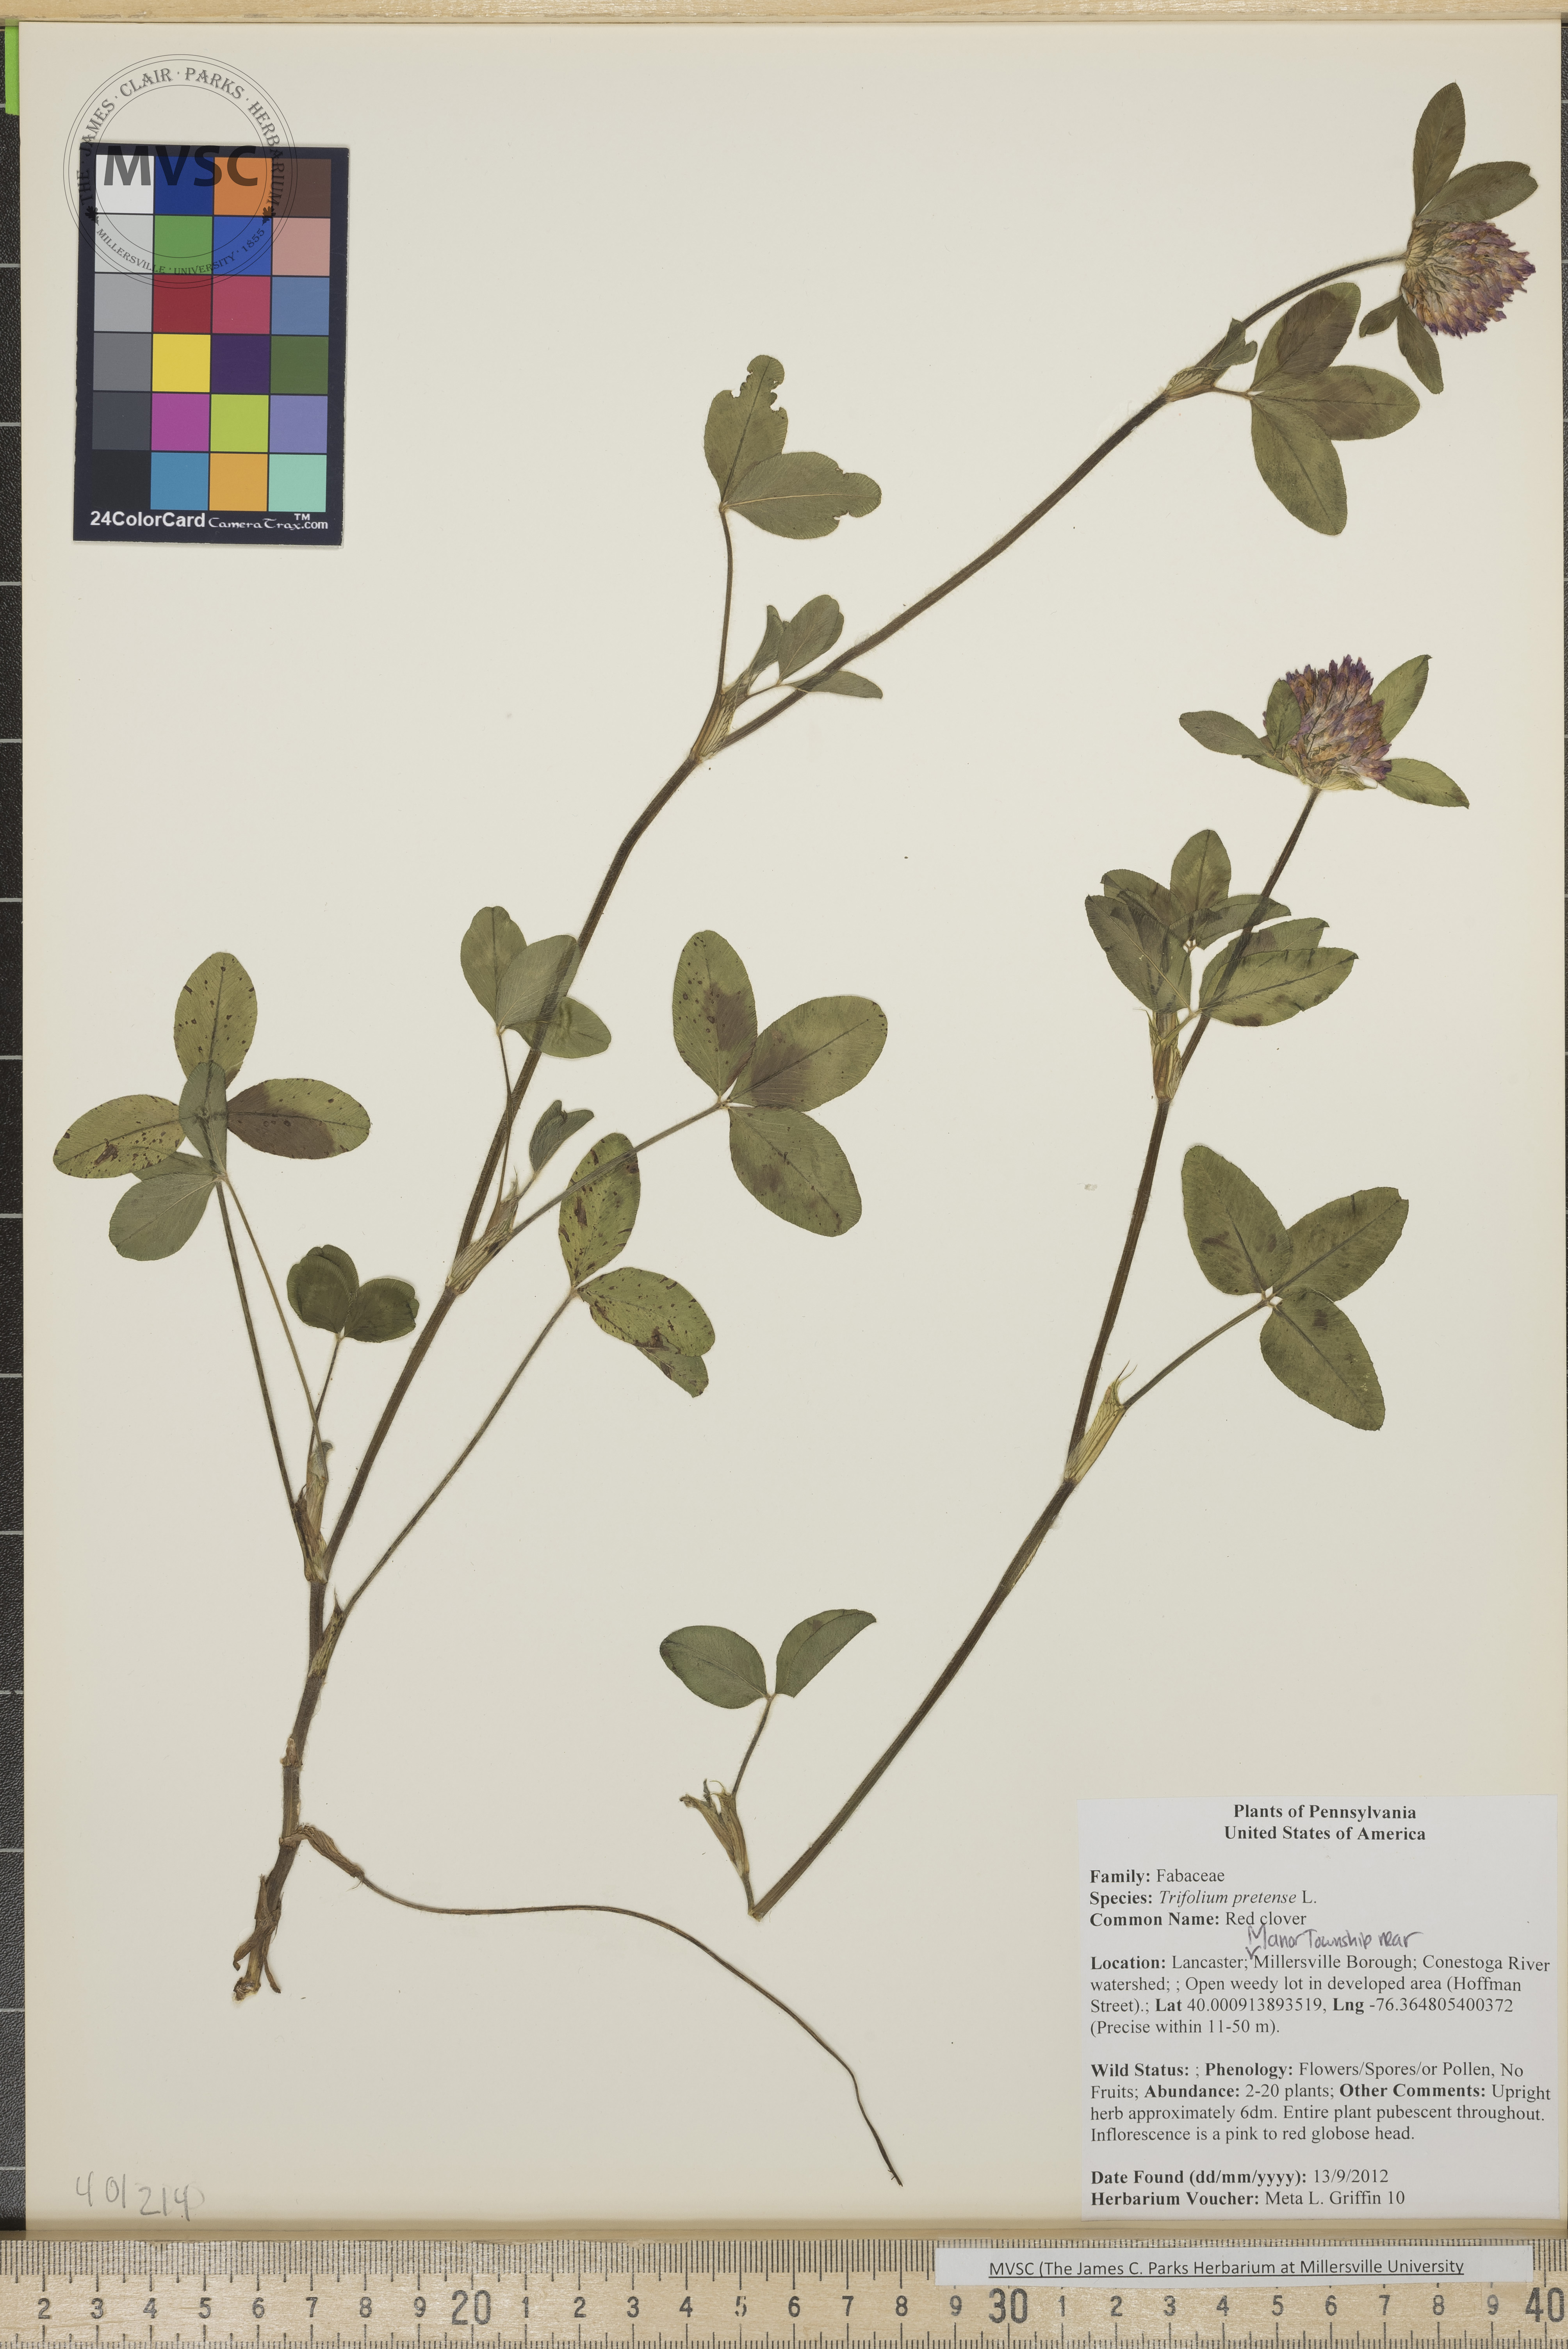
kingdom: Plantae
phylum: Tracheophyta
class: Magnoliopsida
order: Fabales
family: Fabaceae
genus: Trifolium
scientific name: Trifolium pratense
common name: Red clover
